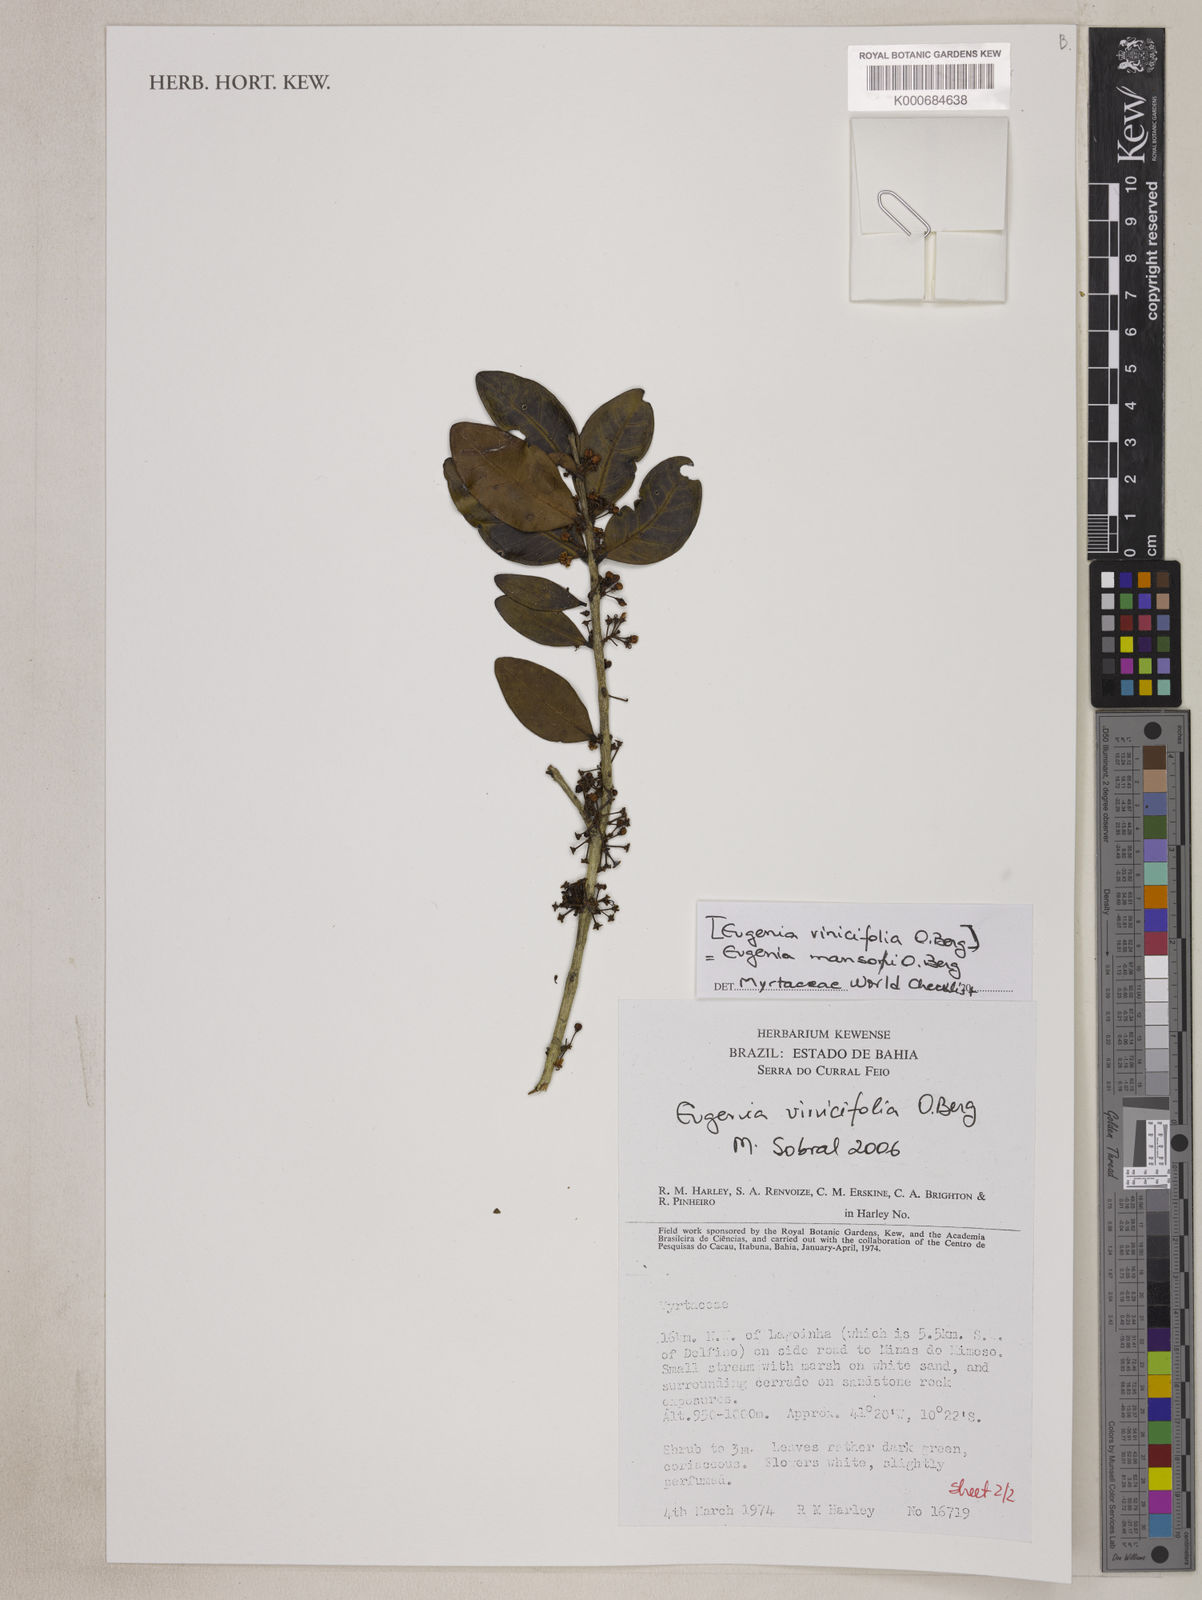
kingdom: Plantae
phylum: Tracheophyta
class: Magnoliopsida
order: Myrtales
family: Myrtaceae
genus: Eugenia
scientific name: Eugenia mansoi
